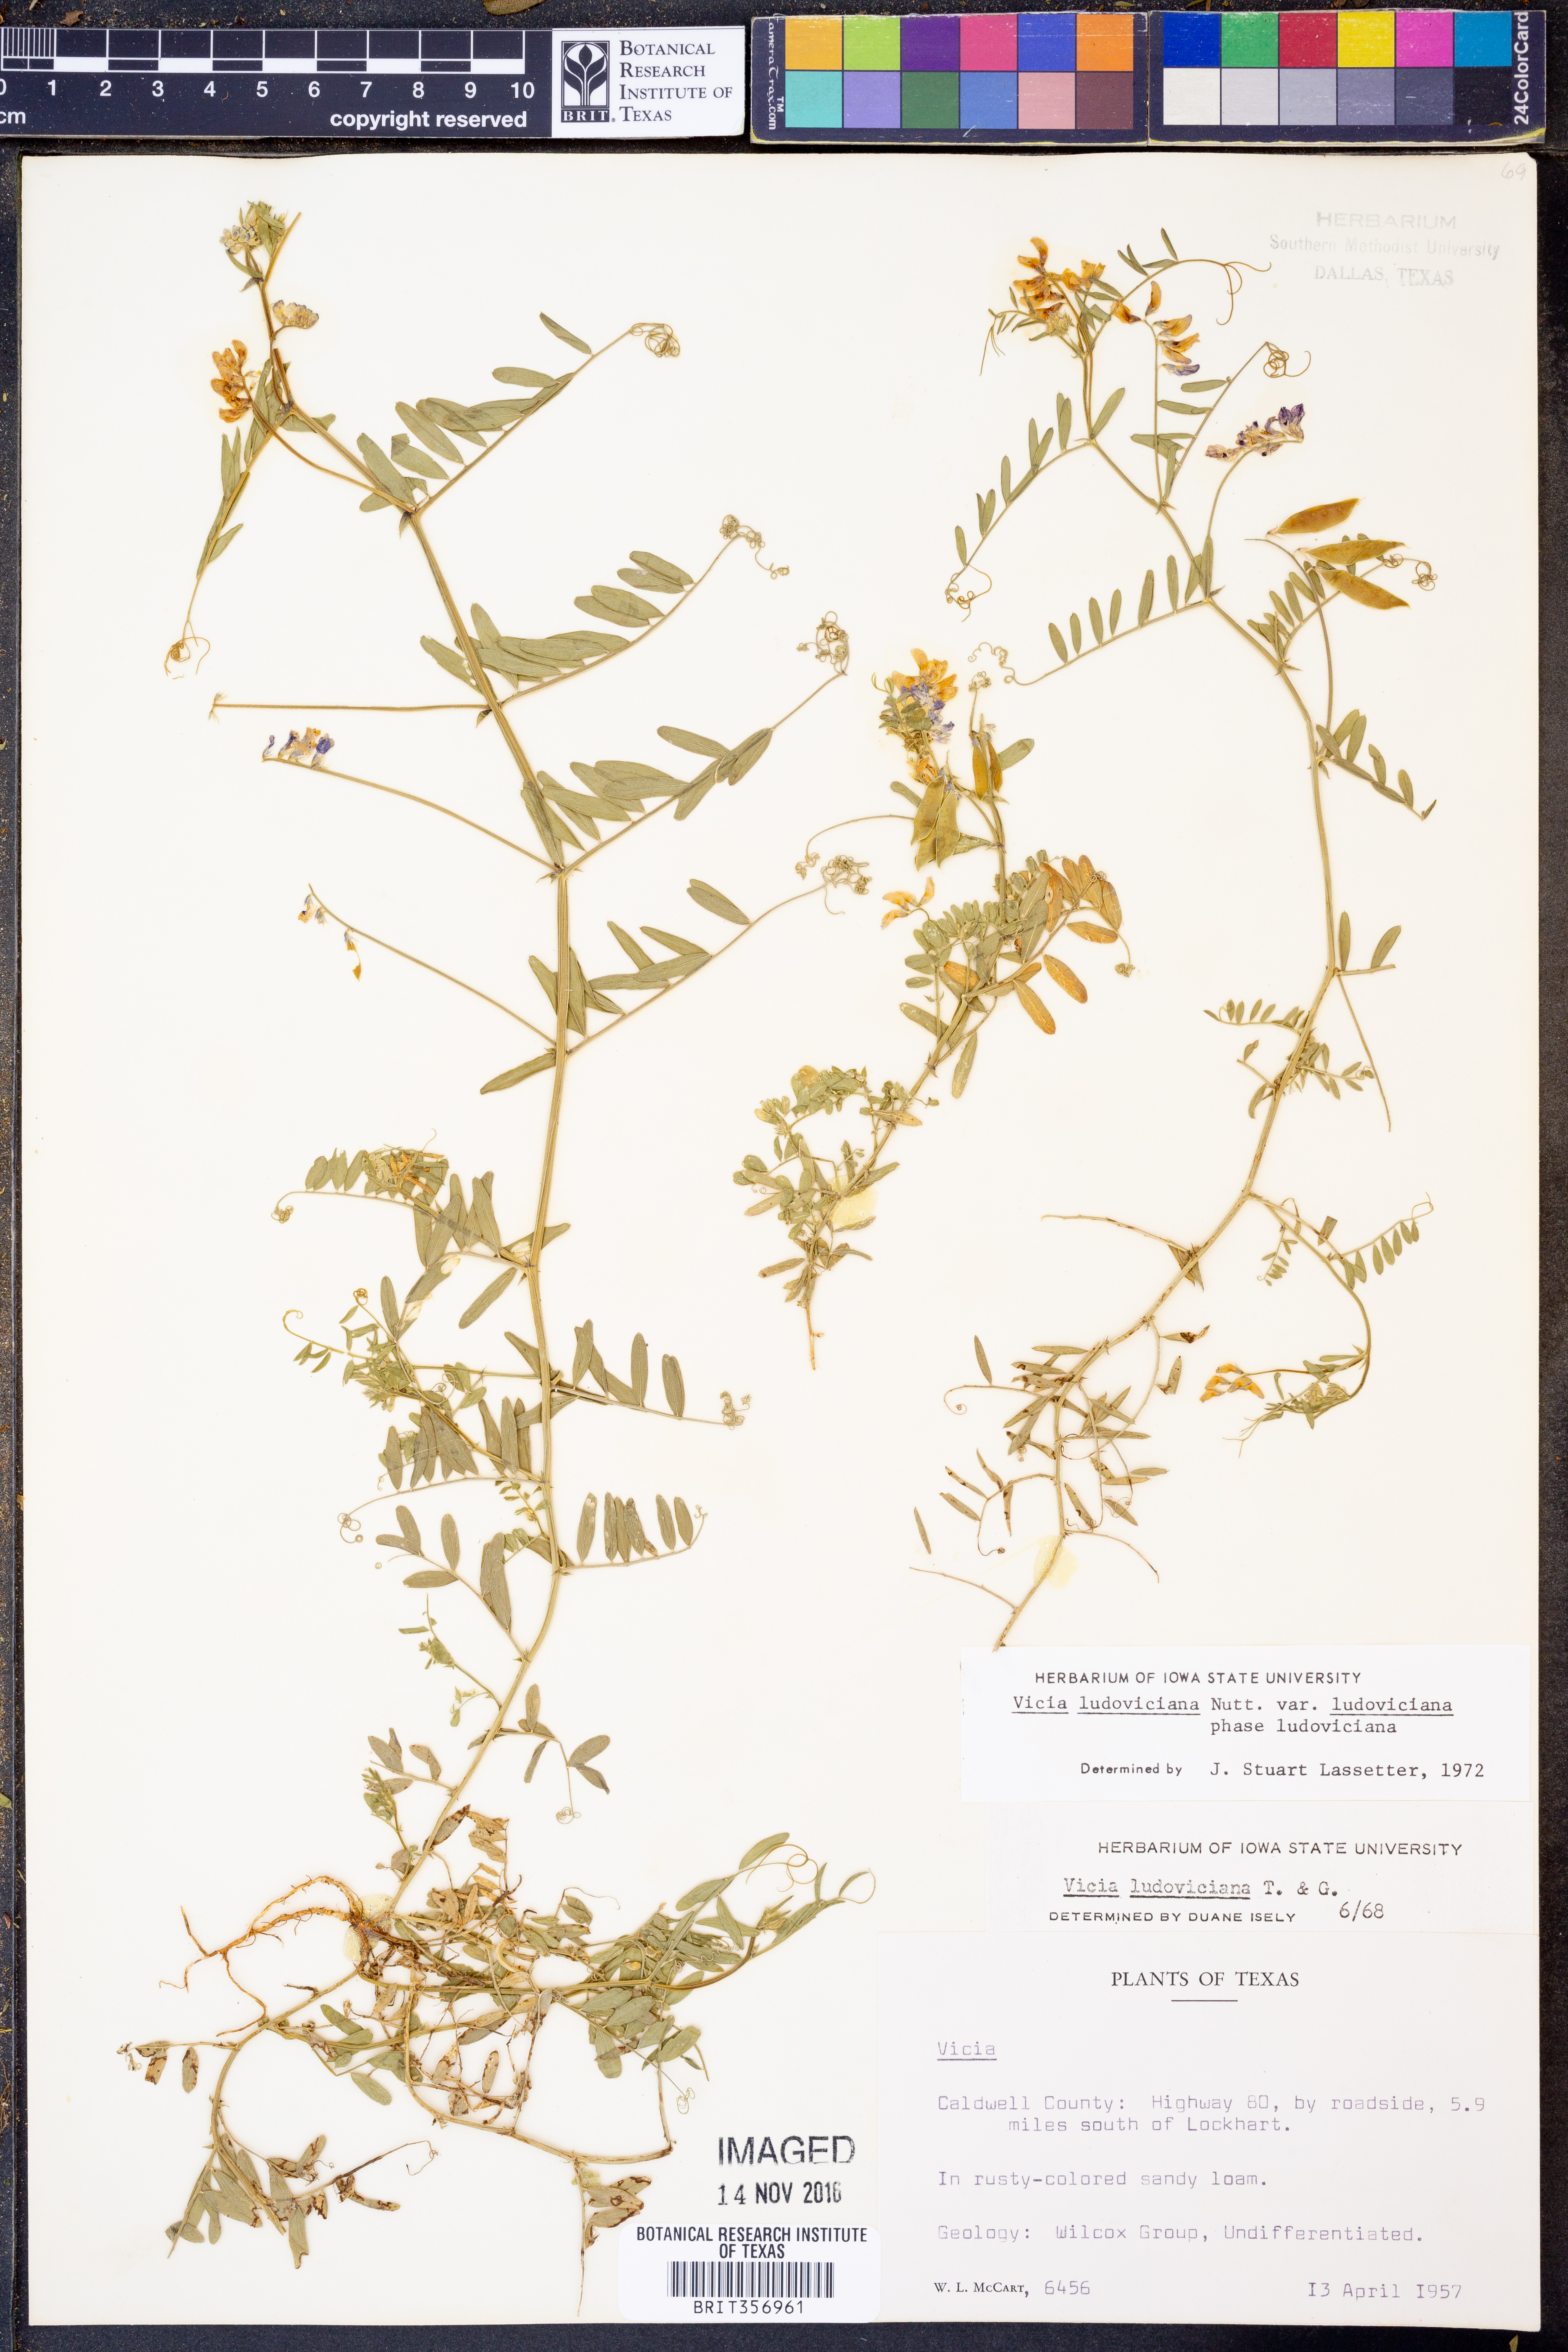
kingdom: Plantae
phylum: Tracheophyta
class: Magnoliopsida
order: Fabales
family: Fabaceae
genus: Vicia
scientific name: Vicia ludoviciana
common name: Louisiana vetch
